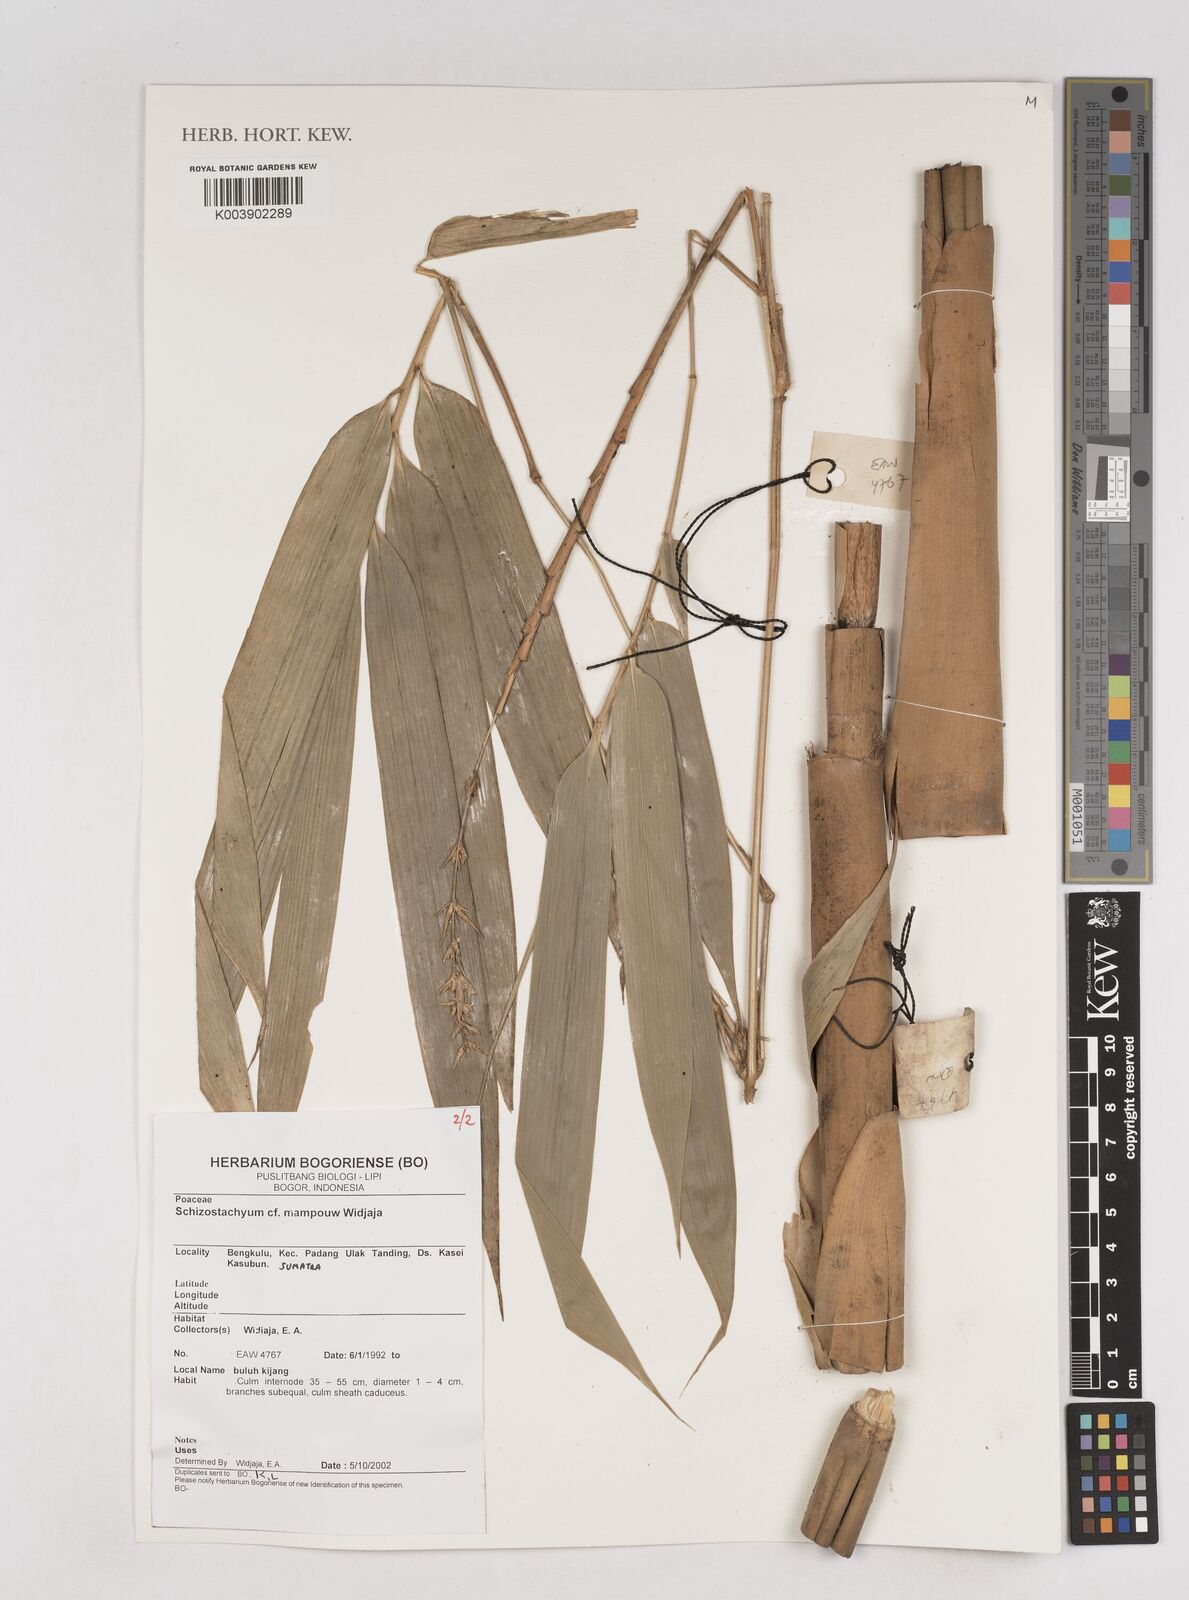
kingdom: Plantae
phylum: Tracheophyta
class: Liliopsida
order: Poales
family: Poaceae
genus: Schizostachyum
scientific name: Schizostachyum mampouw
